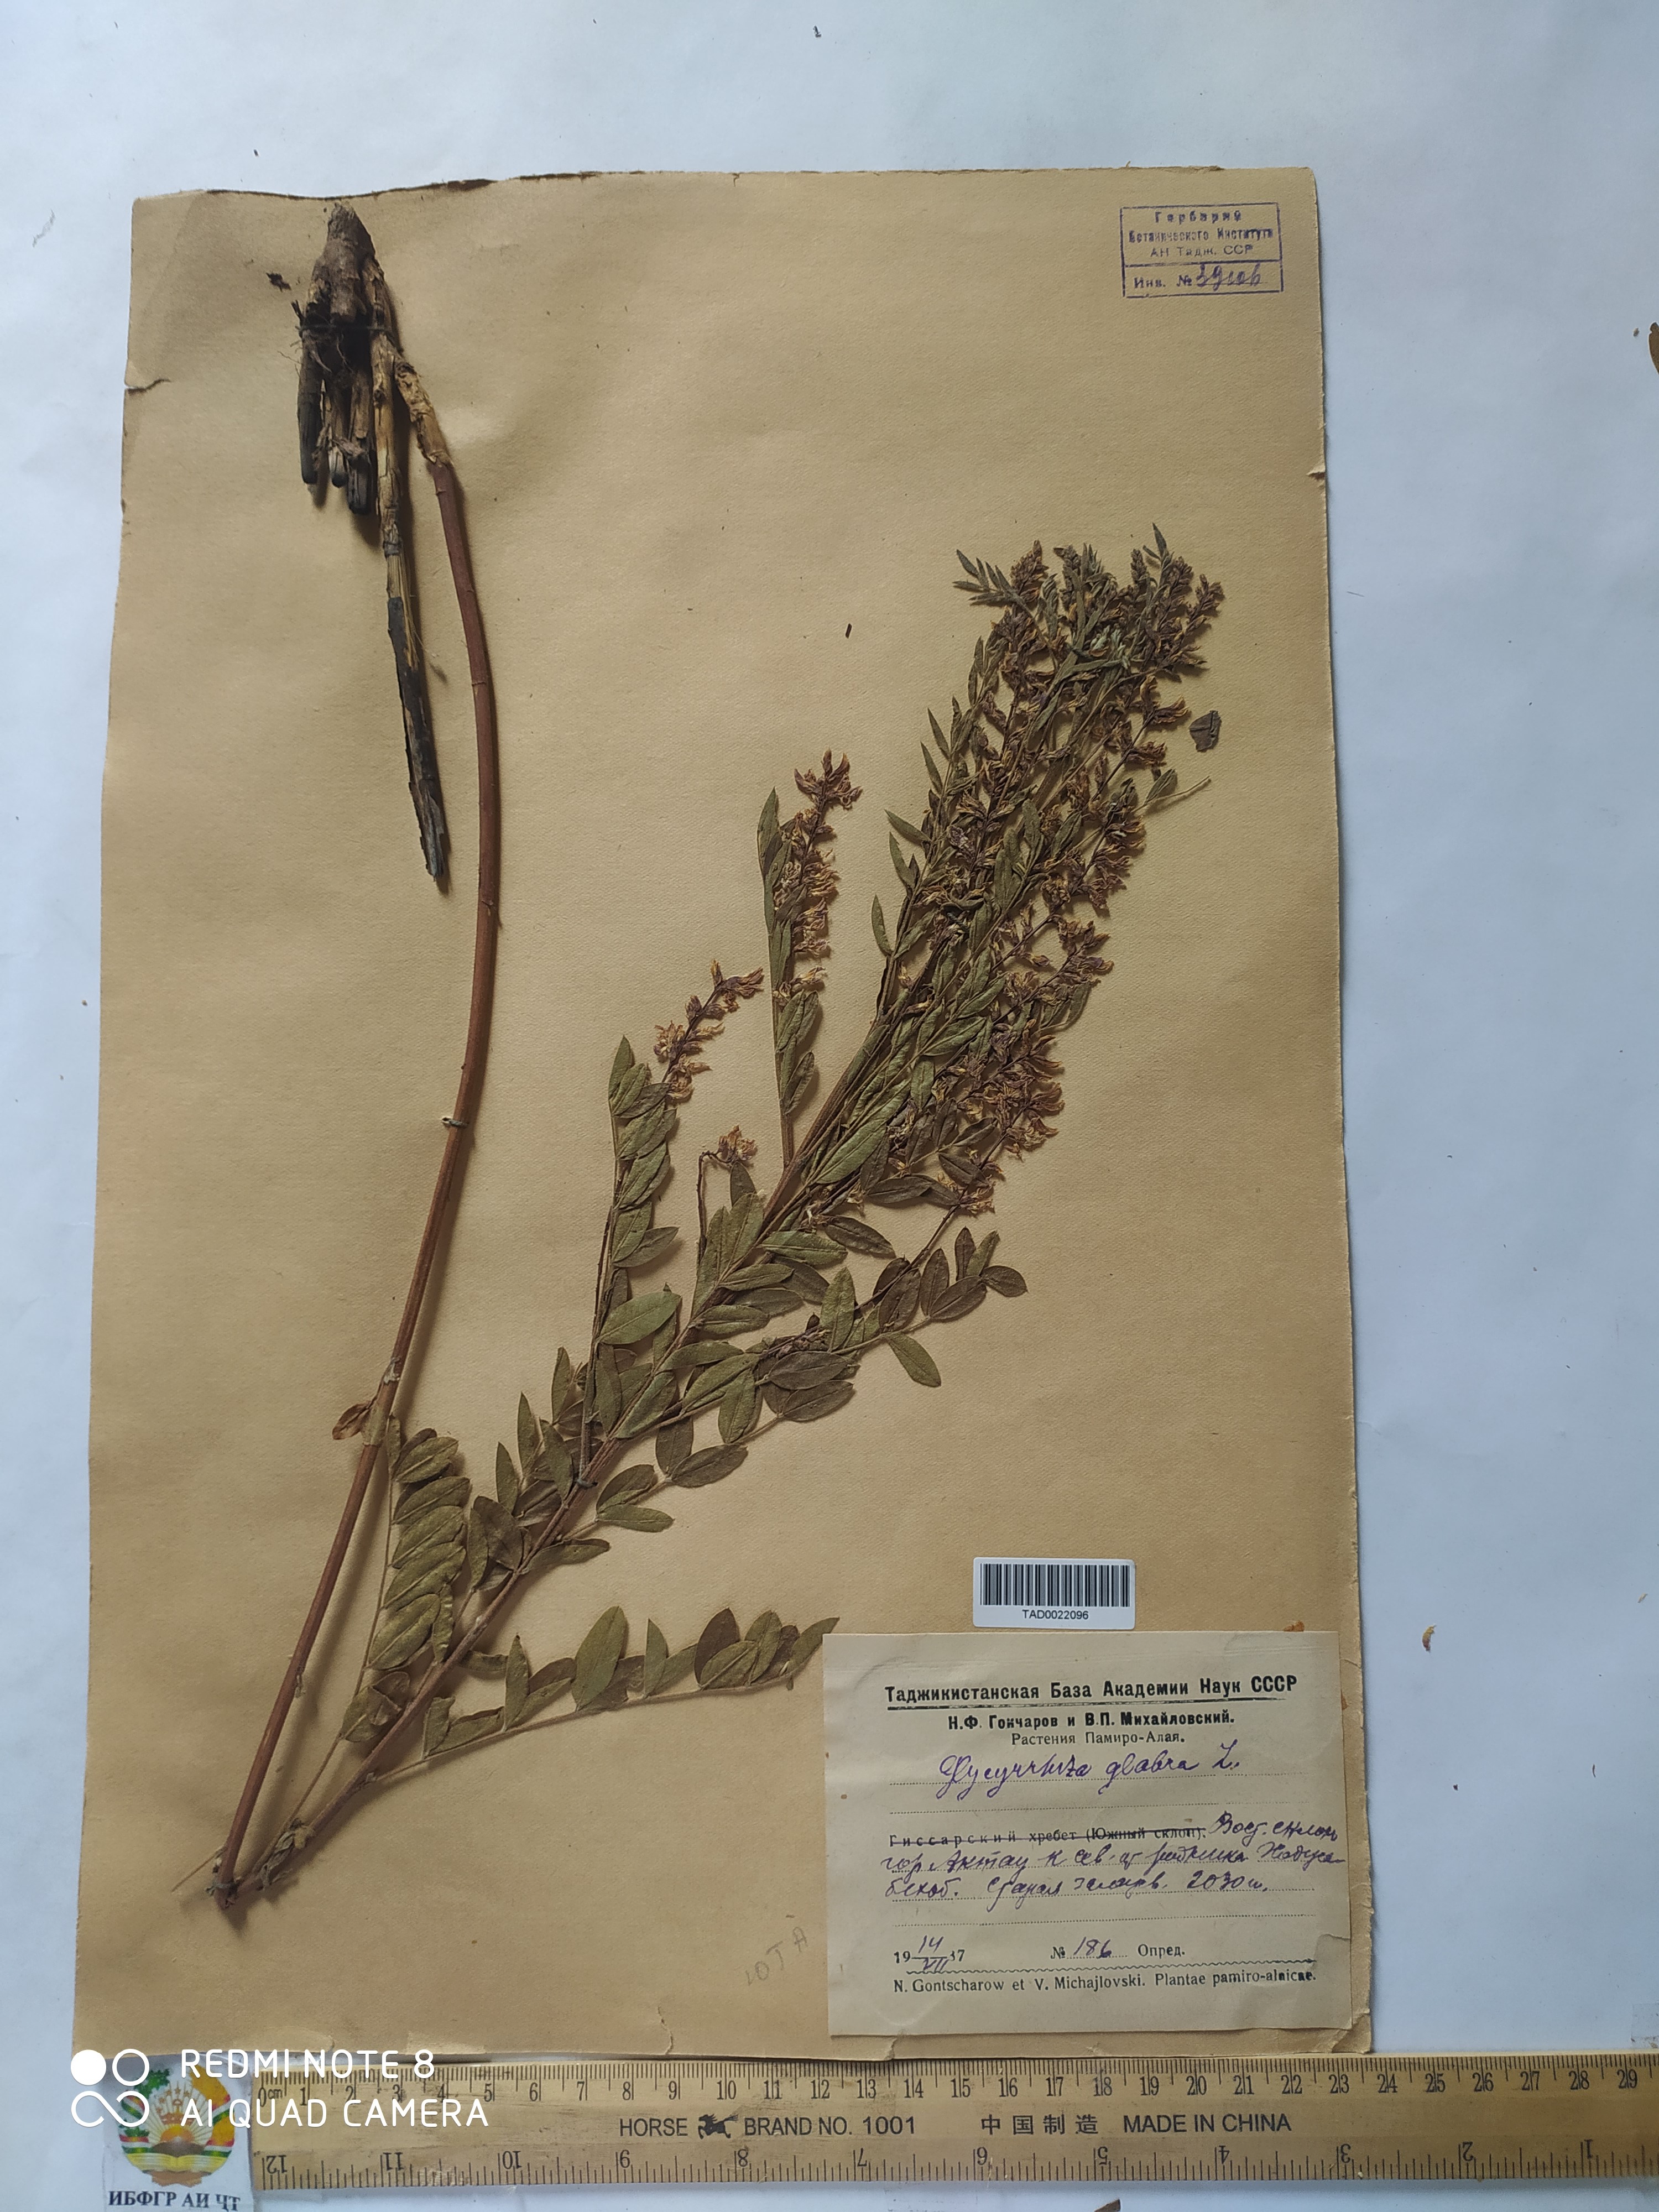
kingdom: Plantae
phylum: Tracheophyta
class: Magnoliopsida
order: Fabales
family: Fabaceae
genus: Glycyrrhiza
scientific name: Glycyrrhiza glabra
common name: Liquorice
